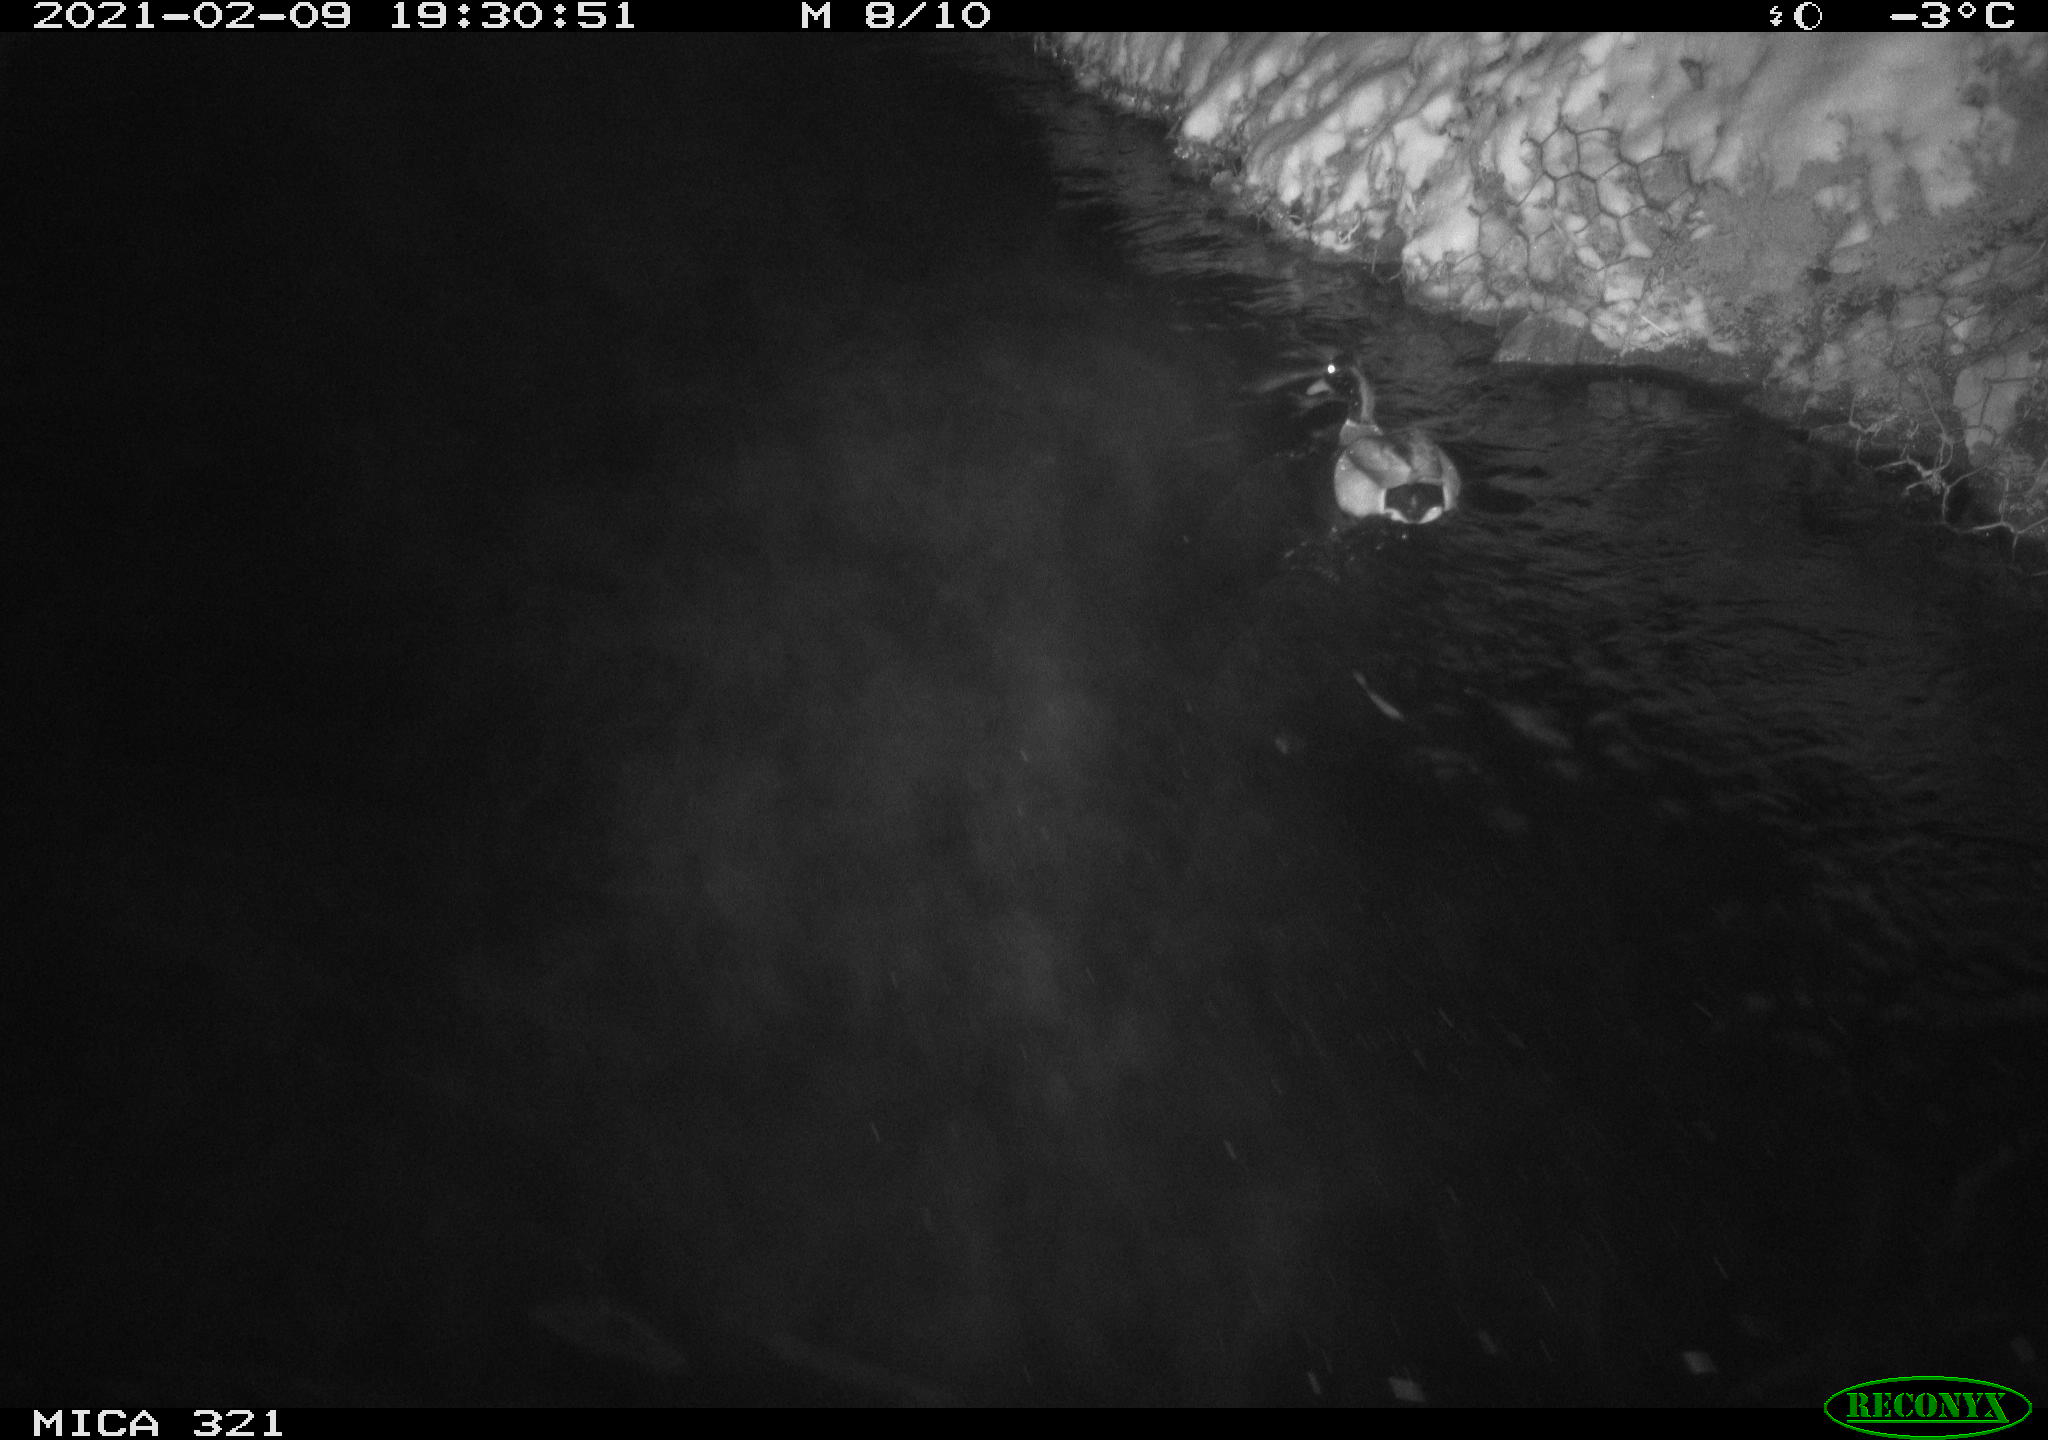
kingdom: Animalia
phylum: Chordata
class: Aves
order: Anseriformes
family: Anatidae
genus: Anas
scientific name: Anas platyrhynchos
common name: Mallard
